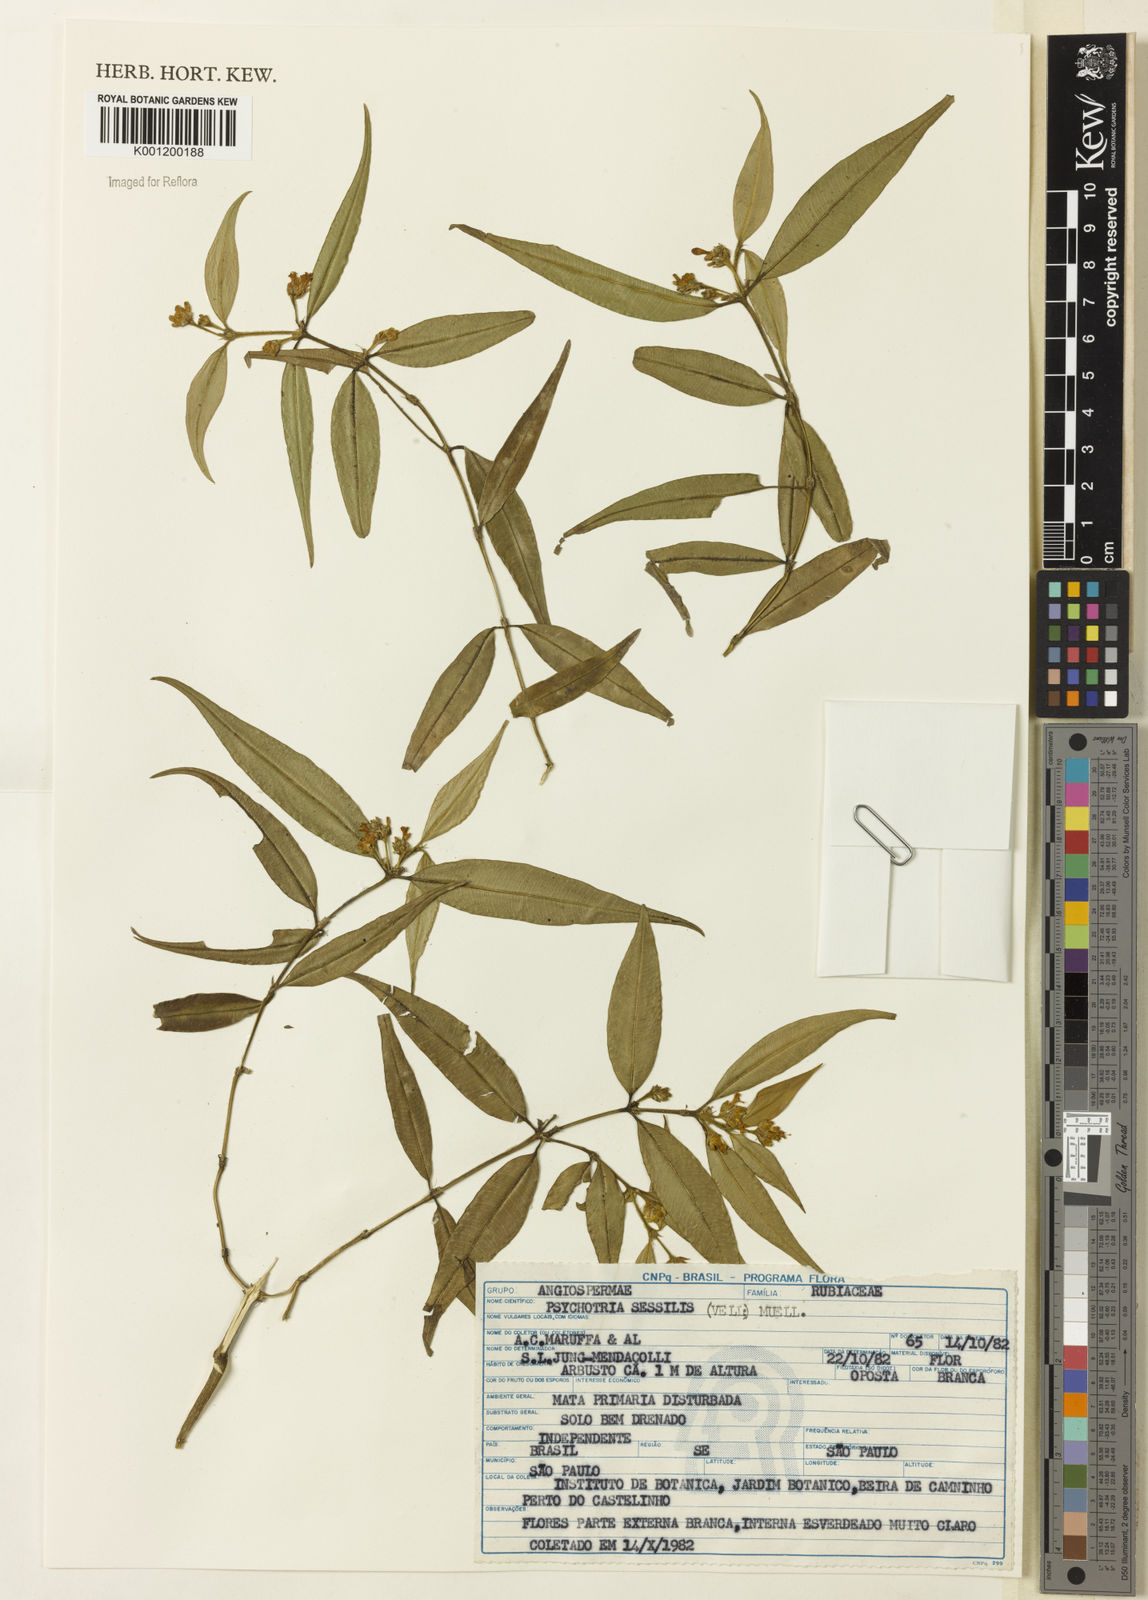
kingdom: Plantae
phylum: Tracheophyta
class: Magnoliopsida
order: Gentianales
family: Rubiaceae
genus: Rudgea
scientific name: Rudgea sessilis
